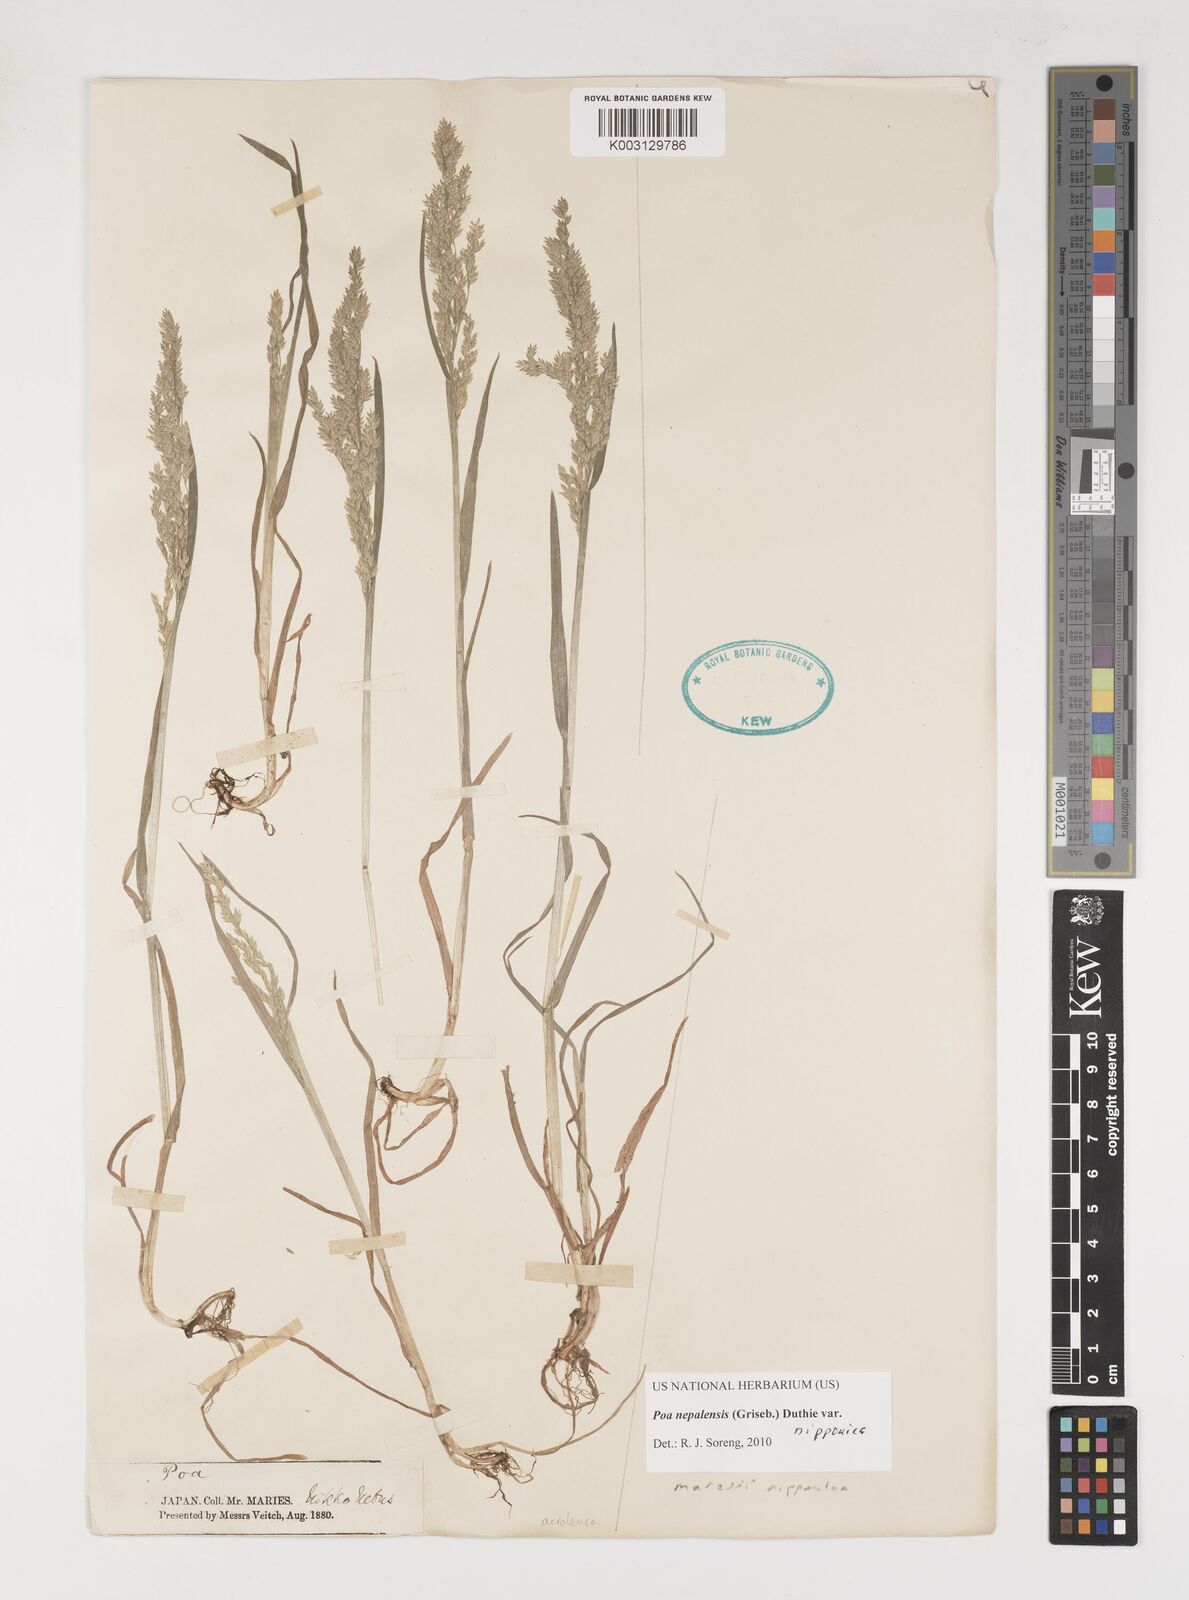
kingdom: Plantae
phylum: Tracheophyta
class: Liliopsida
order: Poales
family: Poaceae
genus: Poa
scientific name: Poa nepalensis
